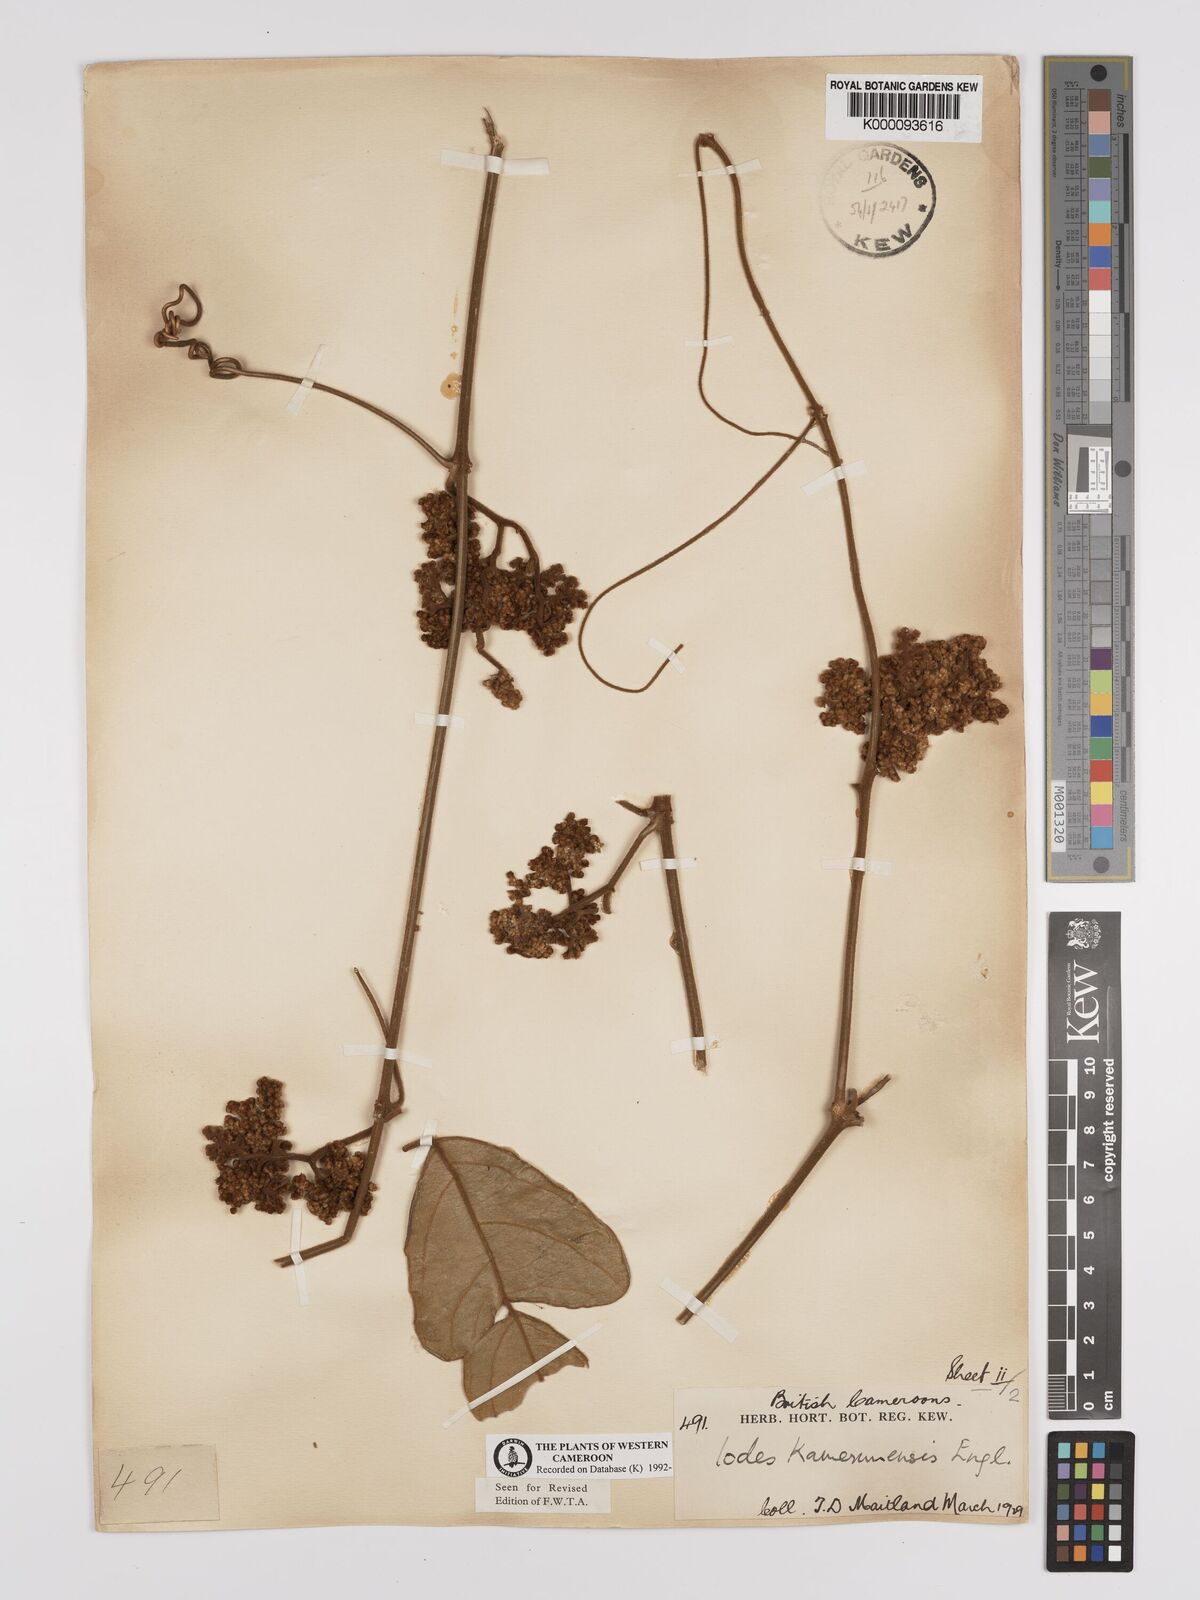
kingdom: Plantae
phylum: Tracheophyta
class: Magnoliopsida
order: Icacinales
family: Icacinaceae
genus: Iodes
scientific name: Iodes kamerunensis
